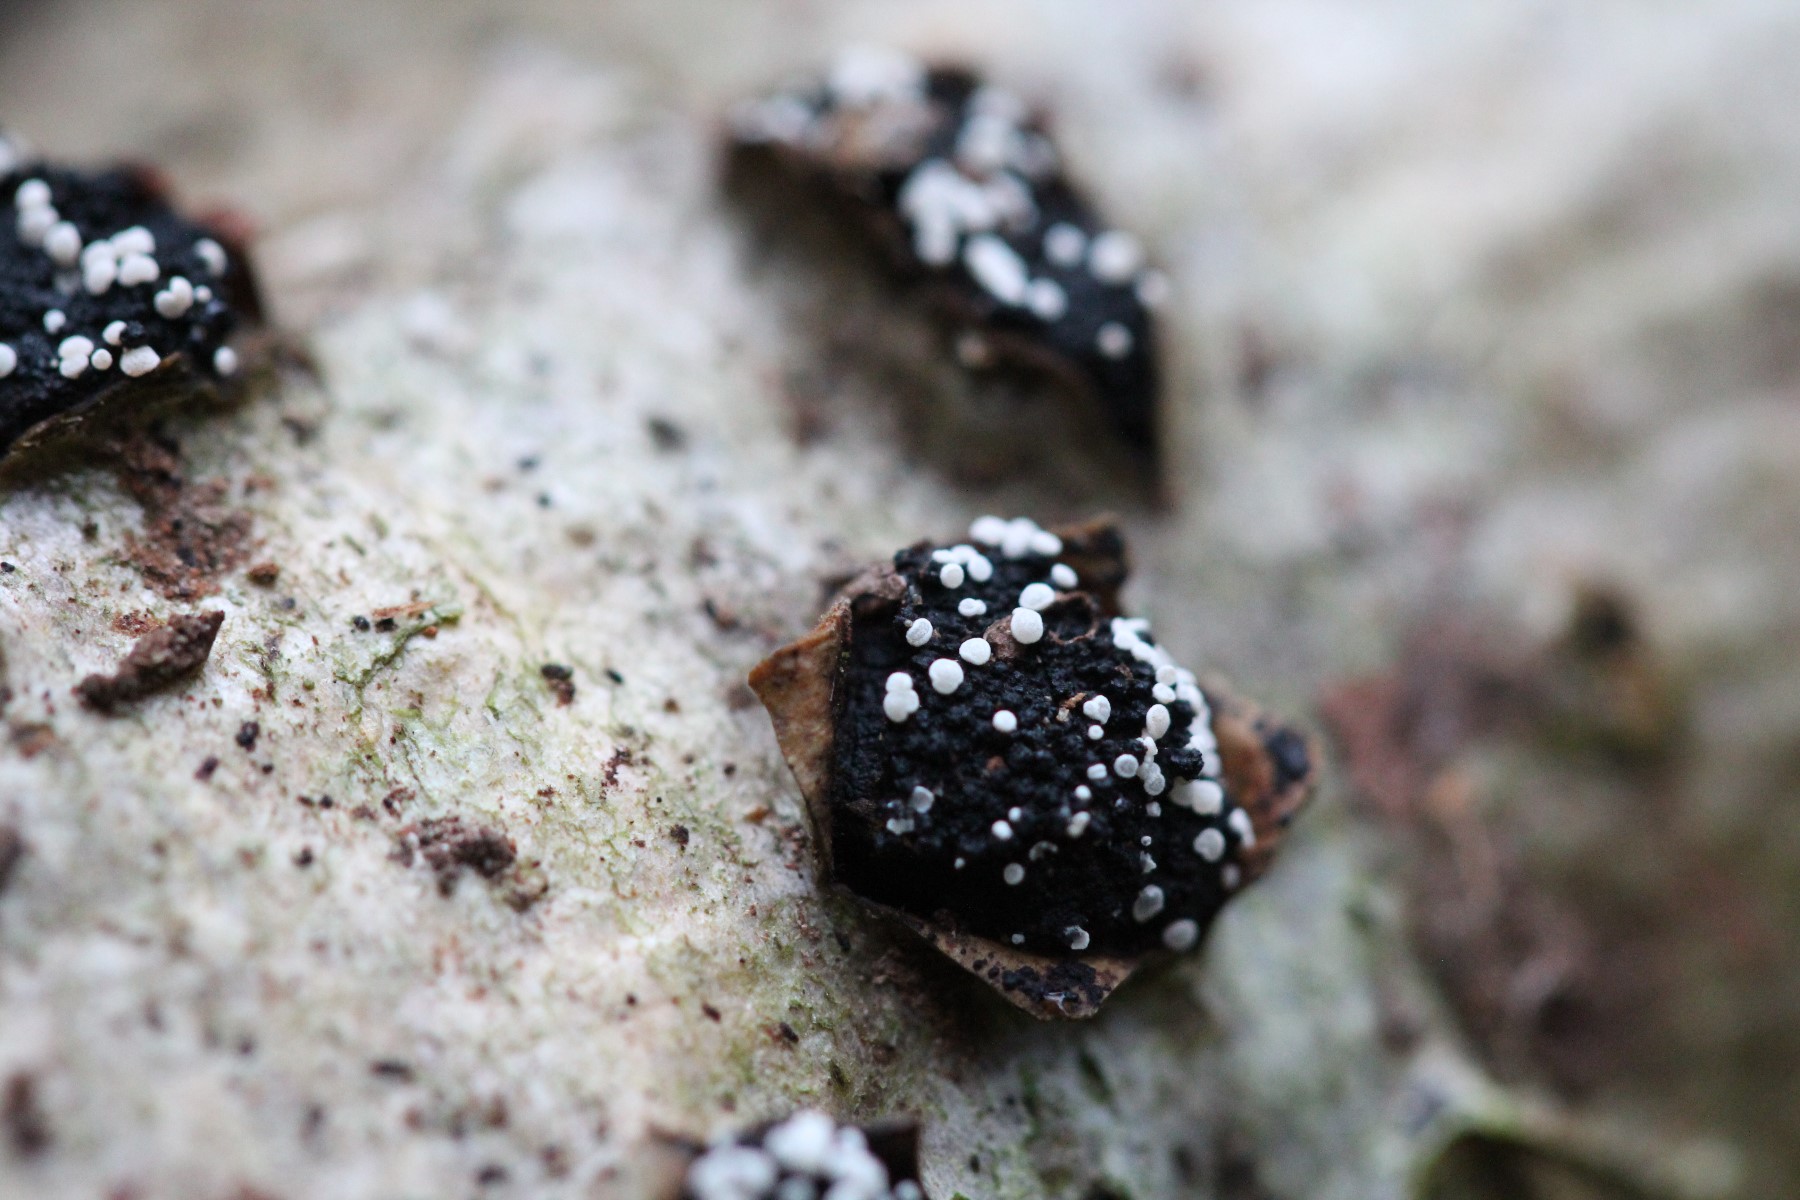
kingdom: Fungi
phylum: Ascomycota
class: Leotiomycetes
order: Helotiales
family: Hyaloscyphaceae
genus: Polydesmia
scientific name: Polydesmia pruinosa
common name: dunskive
